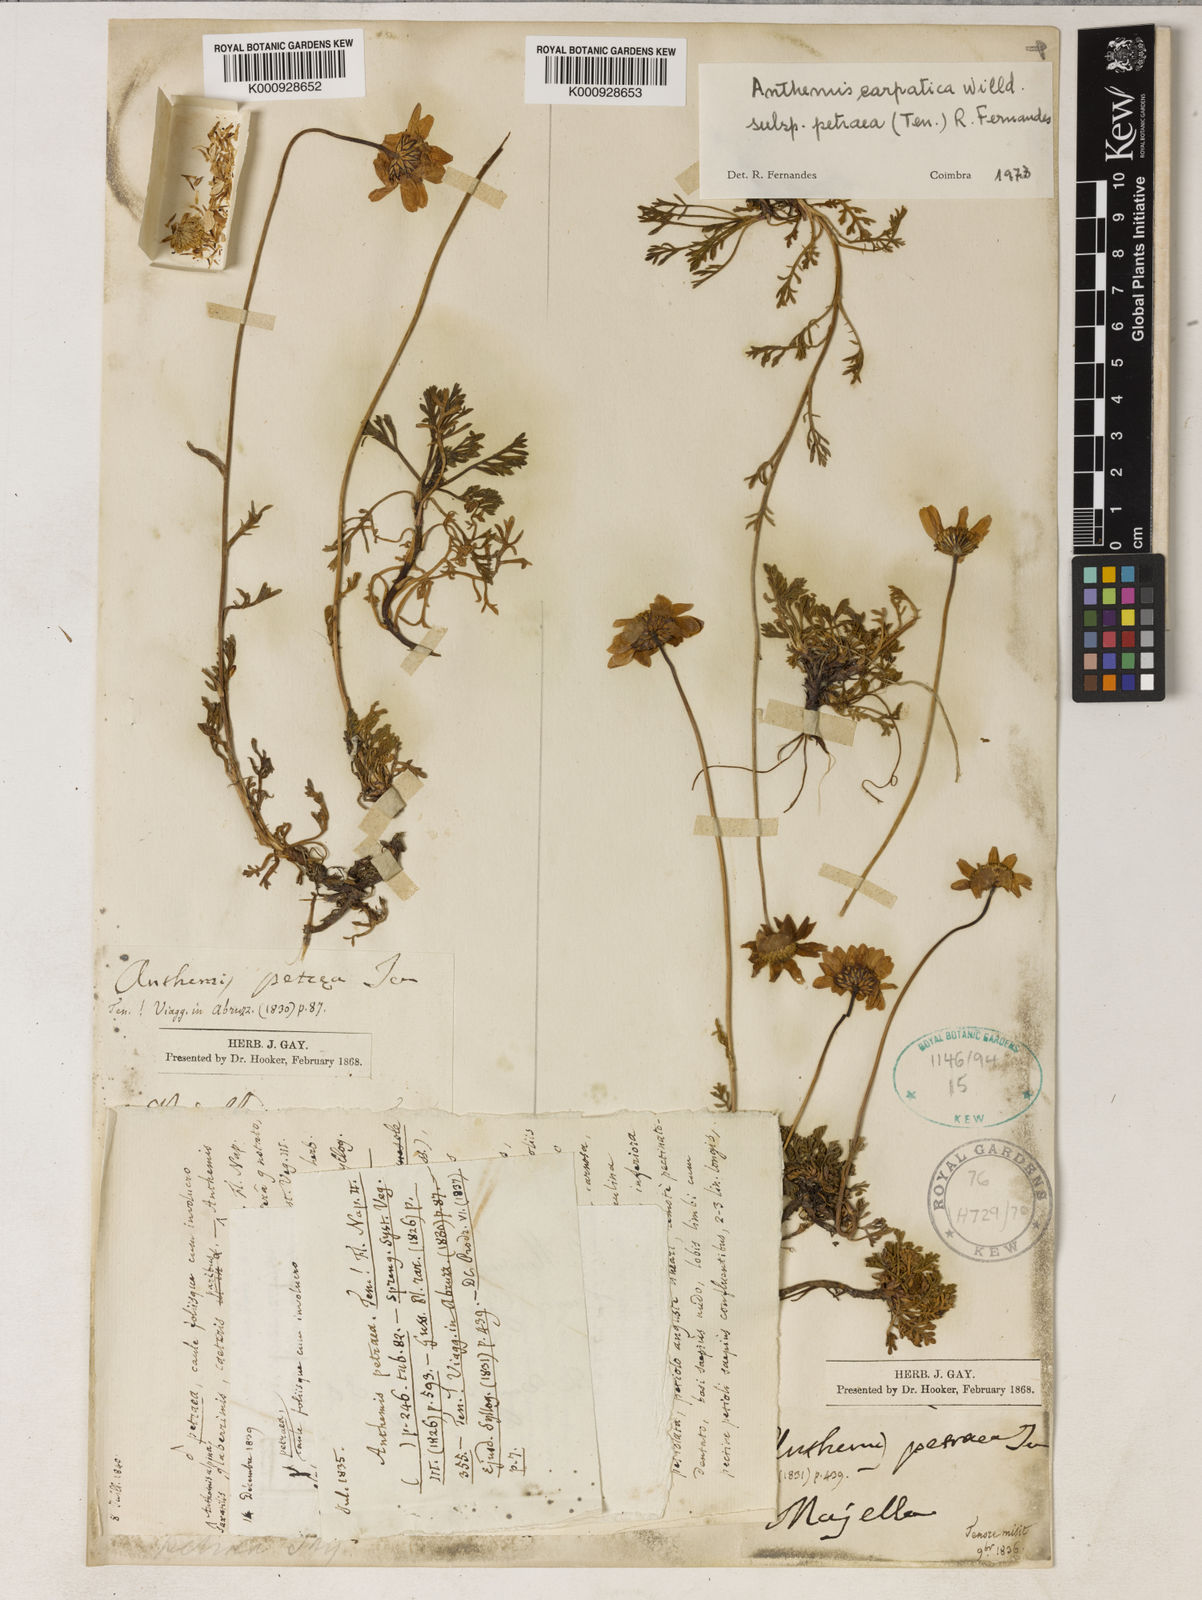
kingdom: Plantae
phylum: Tracheophyta
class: Magnoliopsida
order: Asterales
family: Asteraceae
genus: Anthemis
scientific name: Anthemis cretica
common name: Mountain dog-daisy
